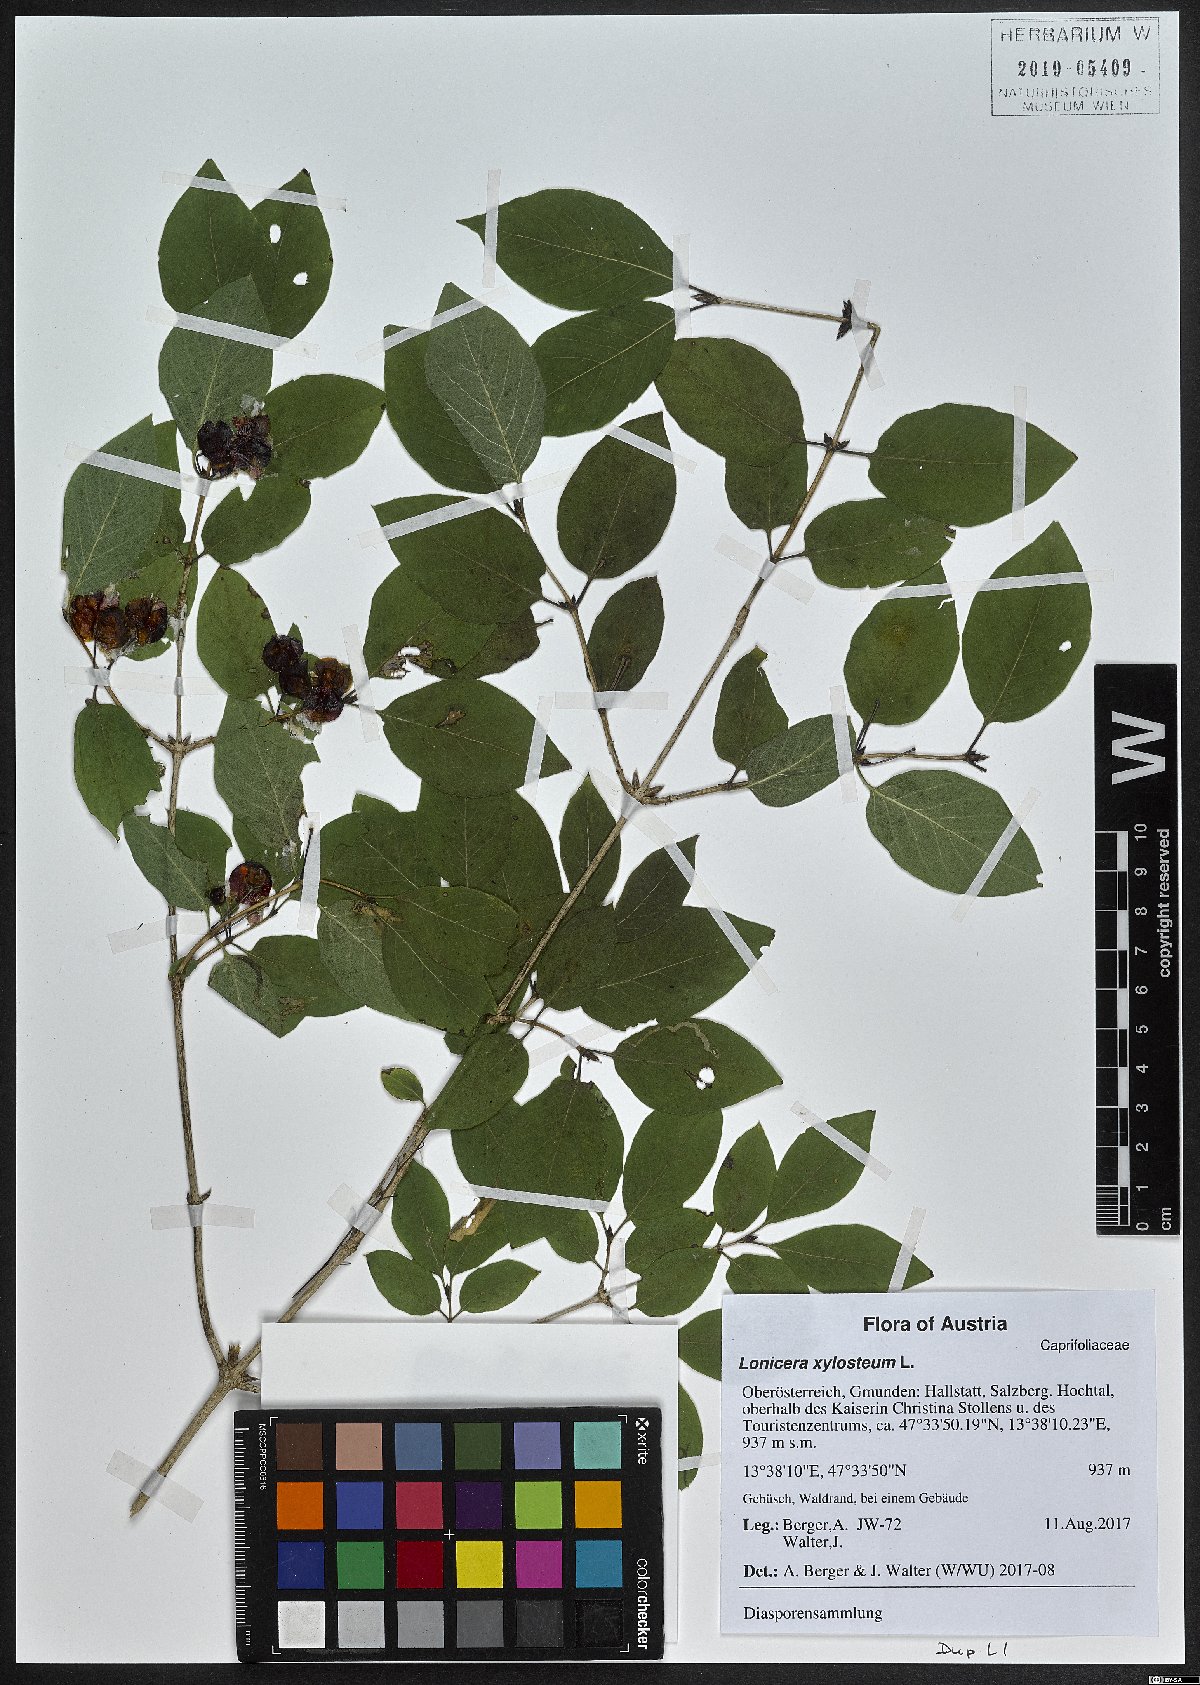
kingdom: Plantae
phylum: Tracheophyta
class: Magnoliopsida
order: Dipsacales
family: Caprifoliaceae
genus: Lonicera
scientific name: Lonicera xylosteum
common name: Fly honeysuckle
